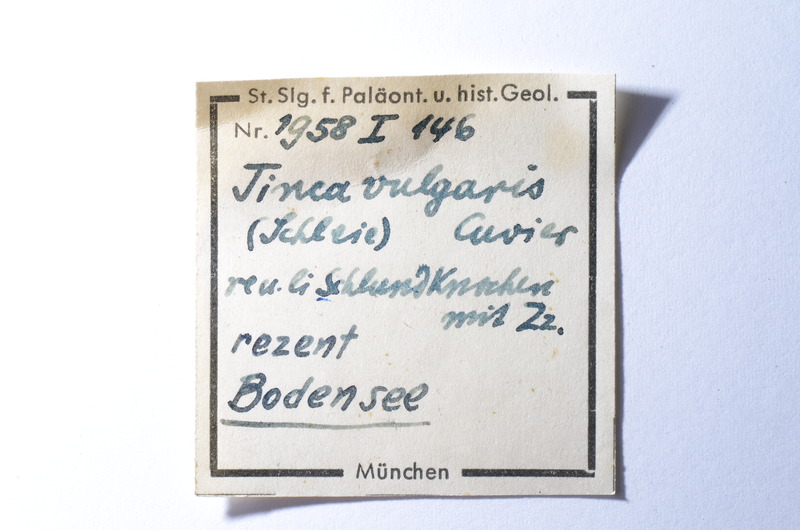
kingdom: Animalia
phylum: Chordata
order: Cypriniformes
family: Cyprinidae
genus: Tinca
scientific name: Tinca tinca
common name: Tench
